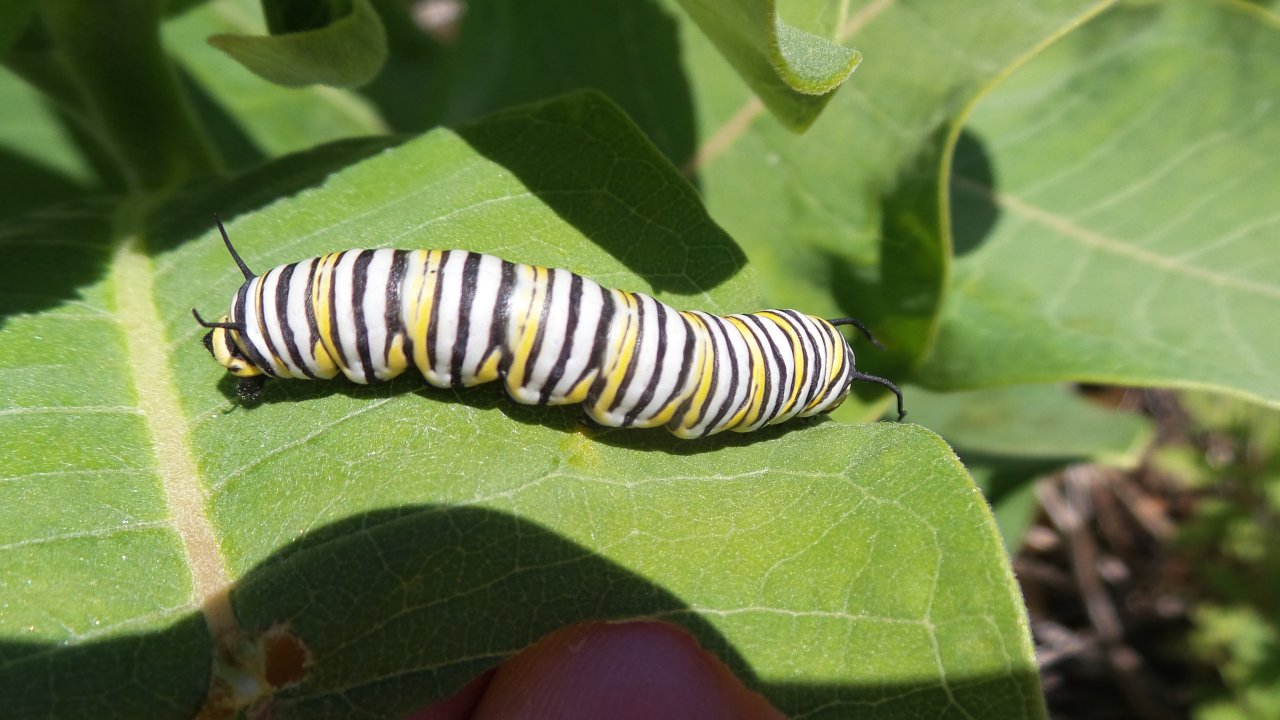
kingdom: Animalia
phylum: Arthropoda
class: Insecta
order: Lepidoptera
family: Nymphalidae
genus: Danaus
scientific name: Danaus plexippus
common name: Monarch
